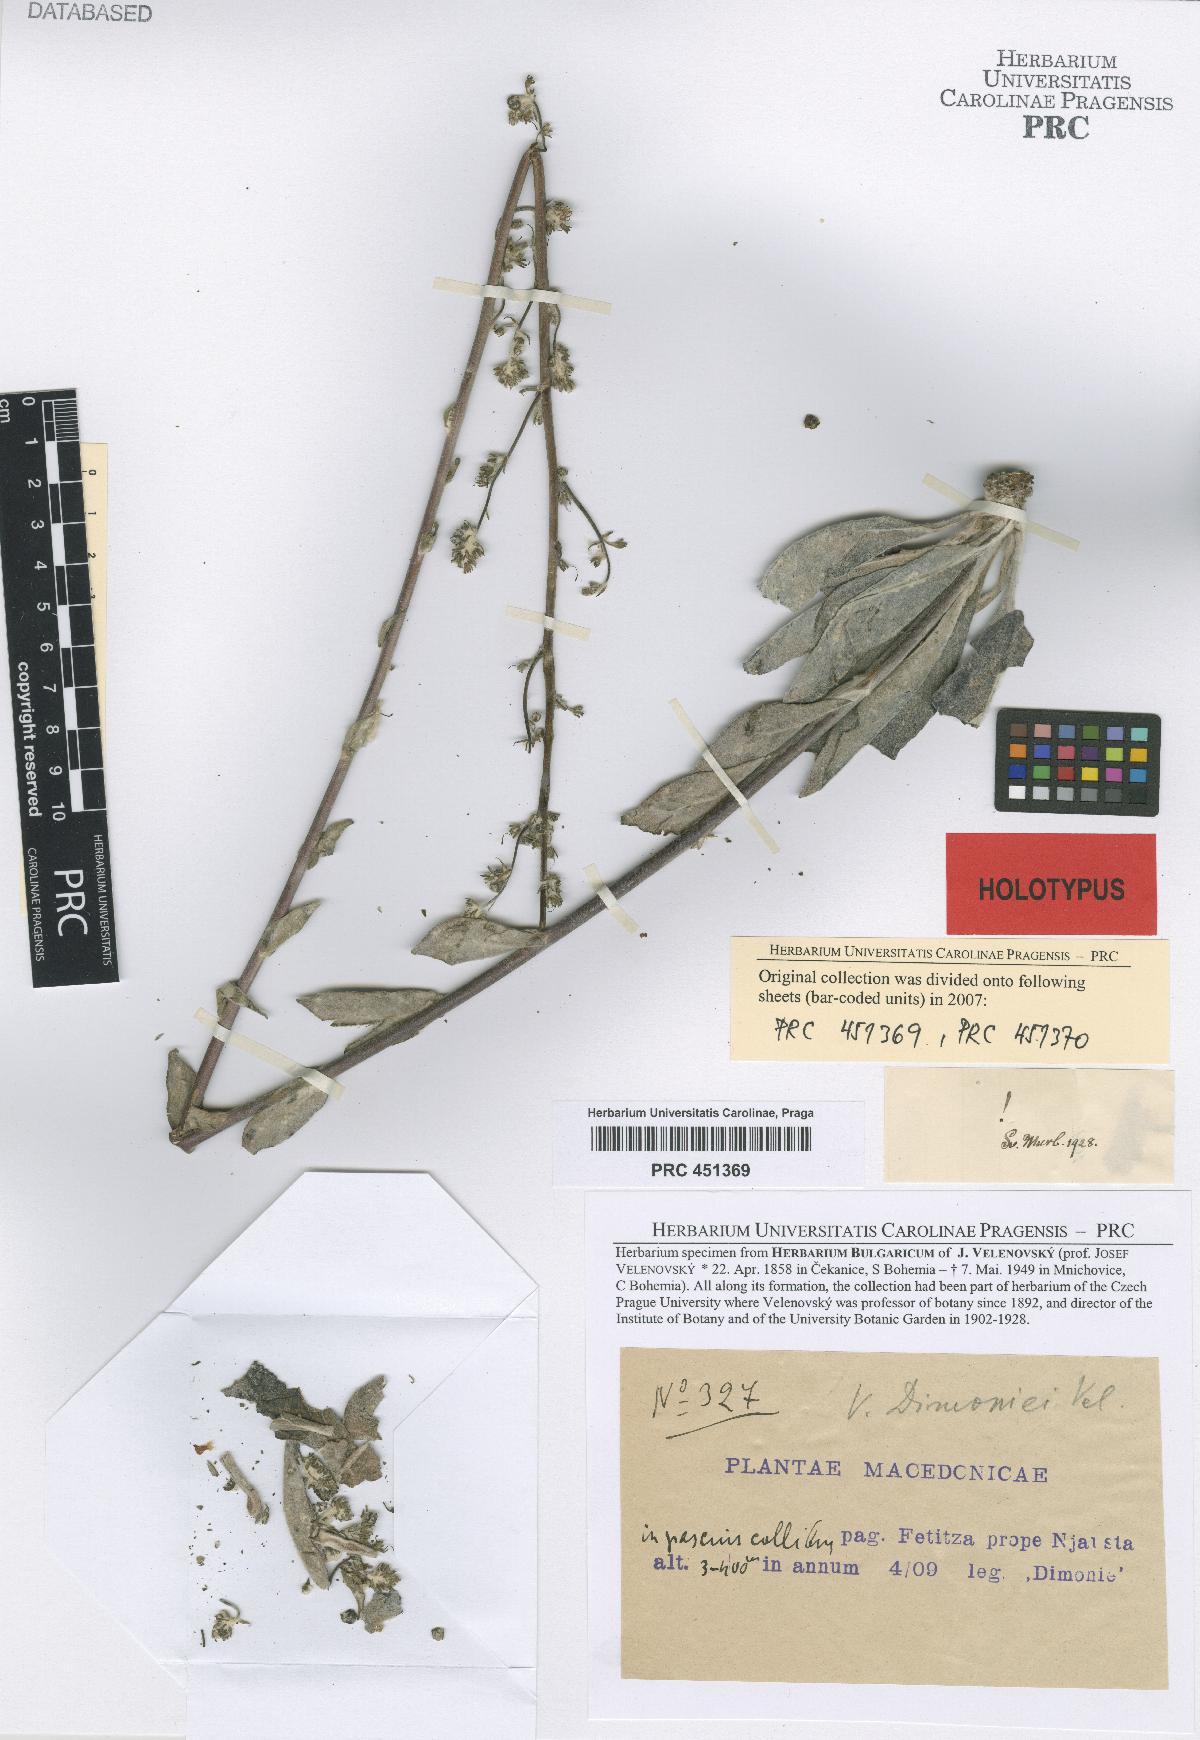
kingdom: Plantae
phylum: Tracheophyta
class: Magnoliopsida
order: Lamiales
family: Scrophulariaceae
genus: Verbascum
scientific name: Verbascum dimoniei
